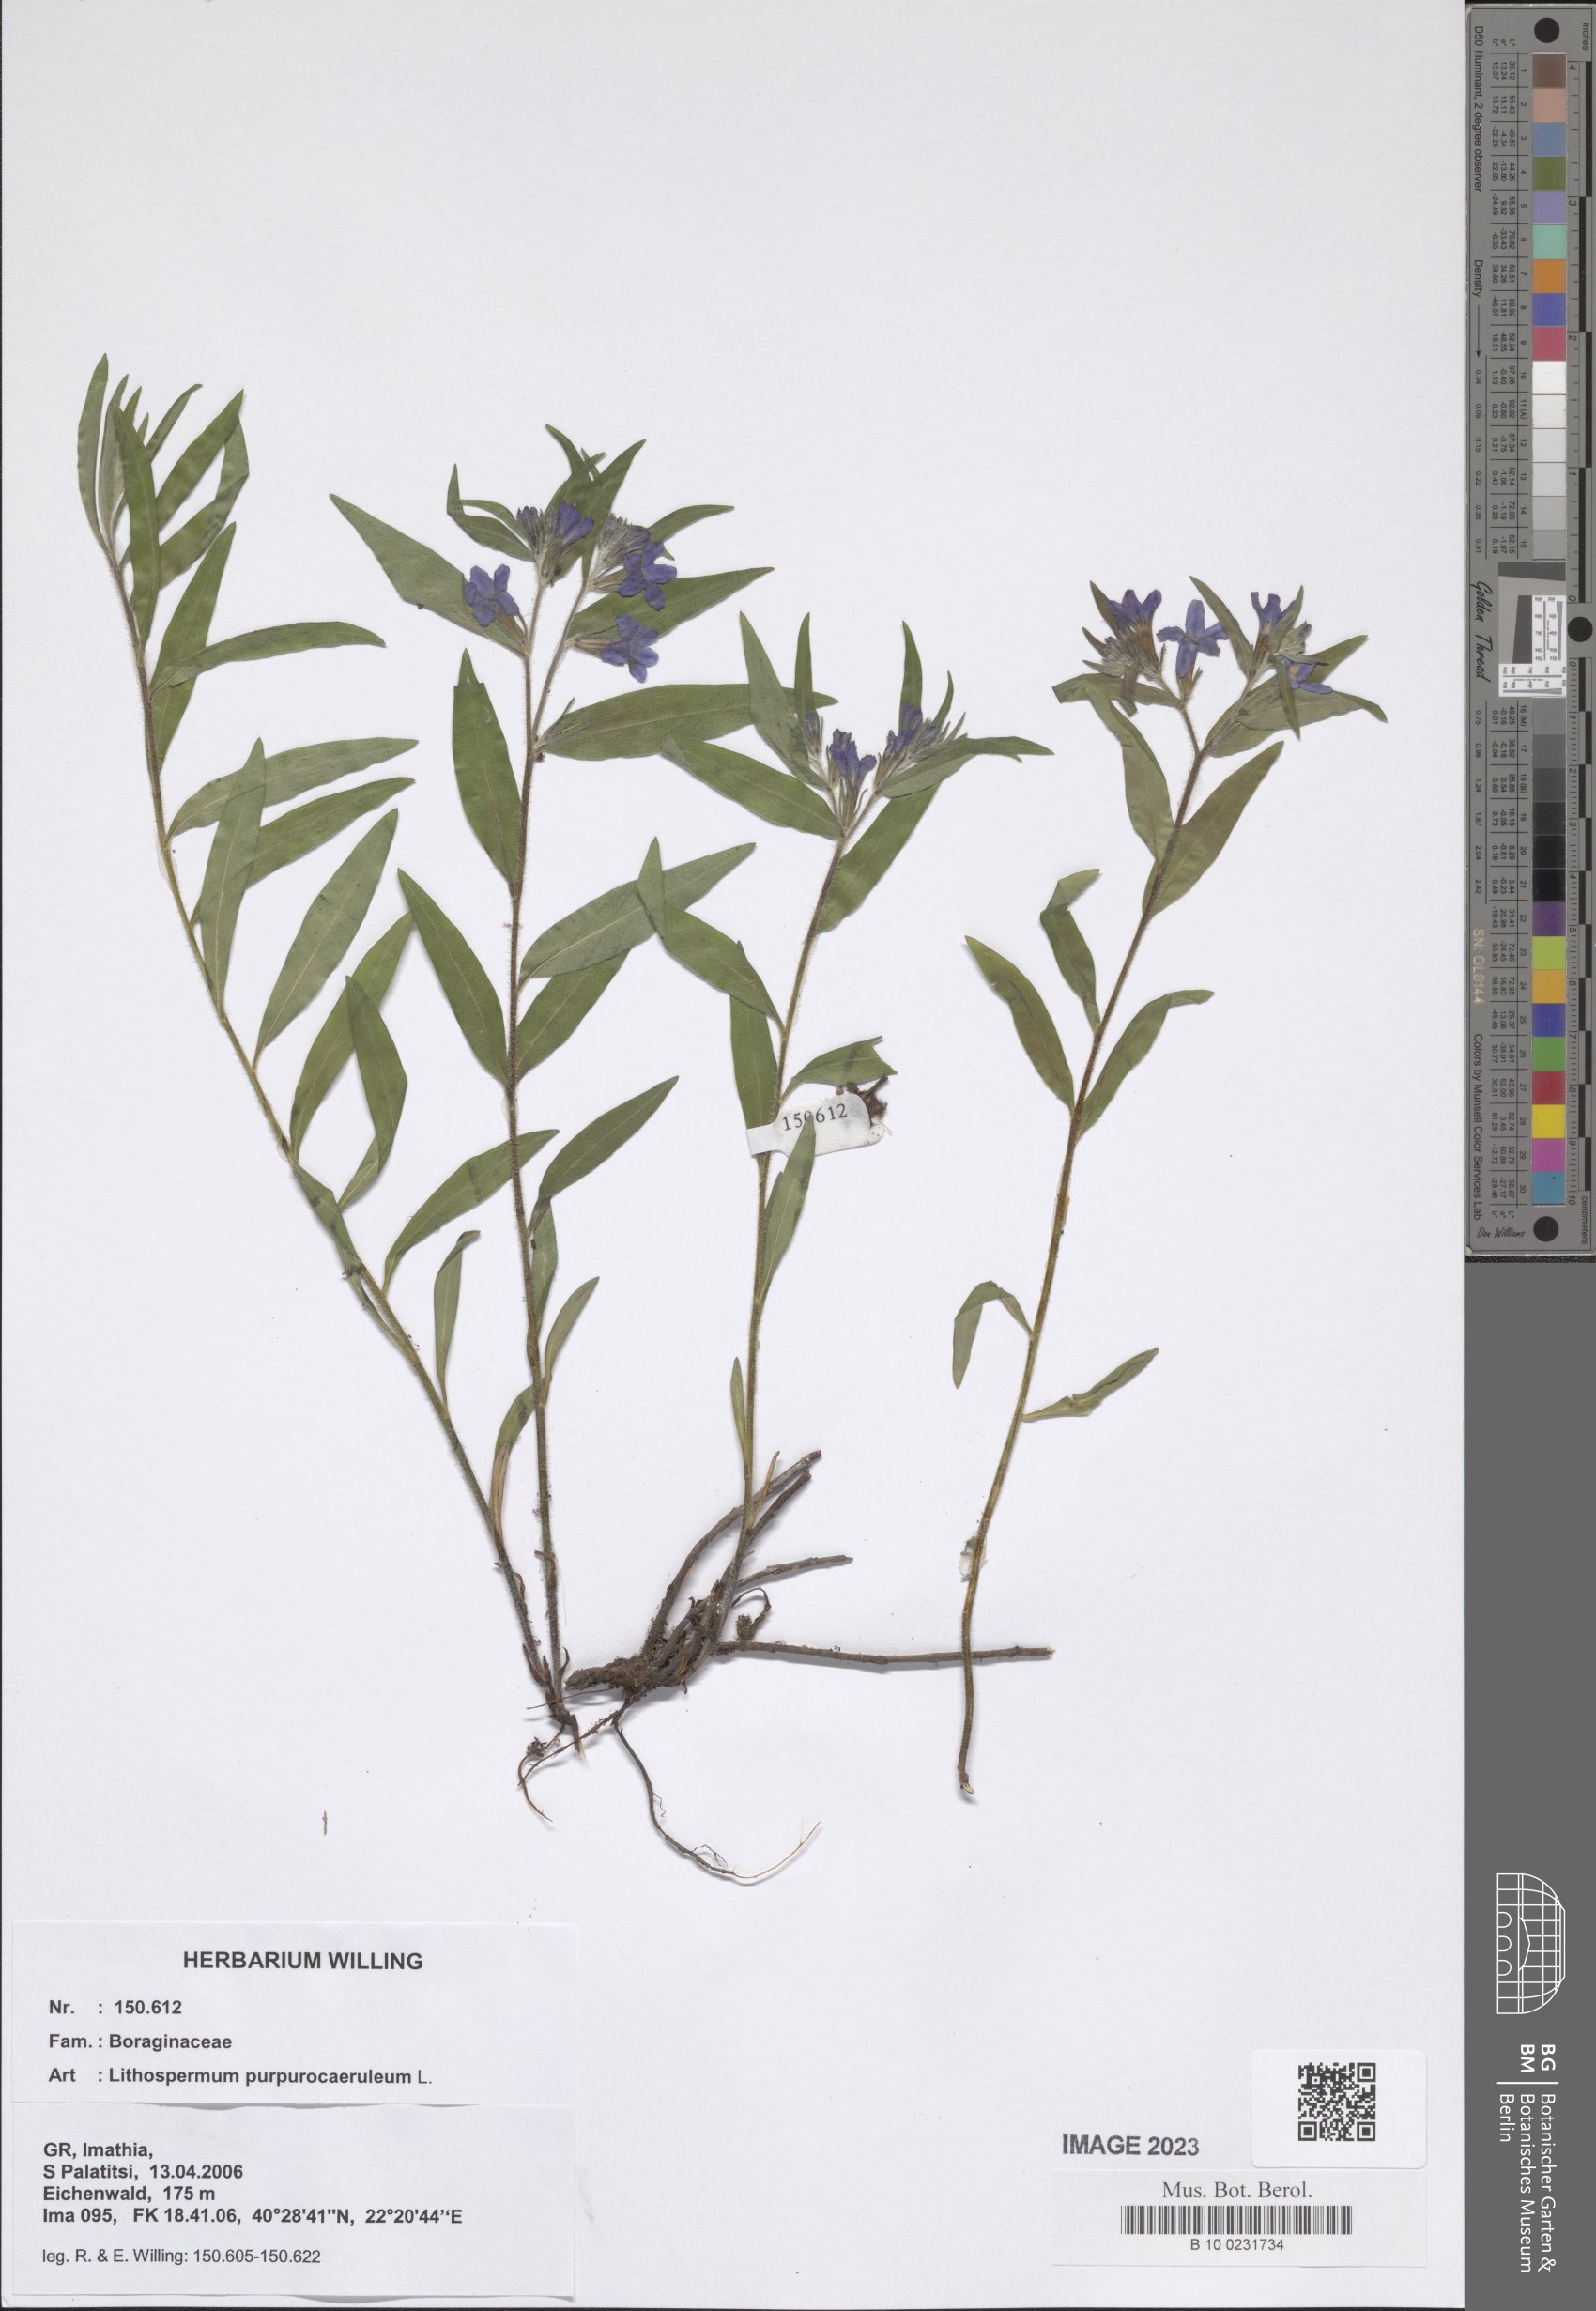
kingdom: Plantae
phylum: Tracheophyta
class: Magnoliopsida
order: Boraginales
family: Boraginaceae
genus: Aegonychon
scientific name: Aegonychon purpurocaeruleum
